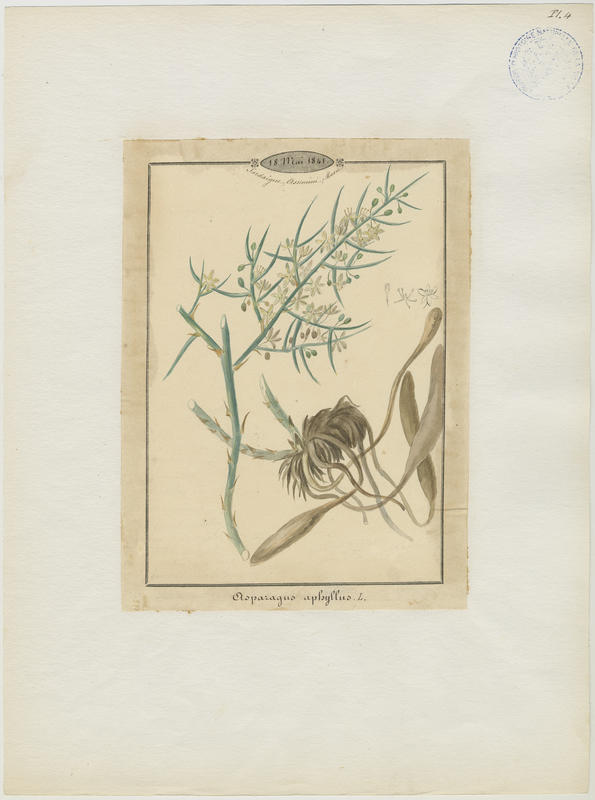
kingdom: Plantae
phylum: Tracheophyta
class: Liliopsida
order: Asparagales
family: Asparagaceae
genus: Asparagus
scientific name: Asparagus aphyllus
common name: Mediterranean asparagus
